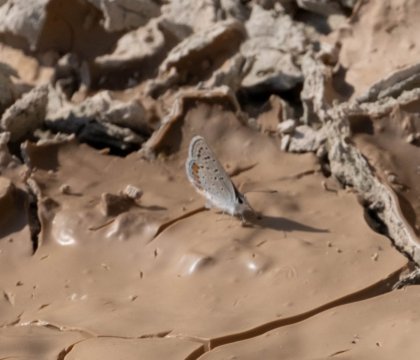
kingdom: Animalia
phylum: Arthropoda
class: Insecta
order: Lepidoptera
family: Lycaenidae
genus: Plebejus
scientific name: Plebejus acmon
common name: Acmon Blue
